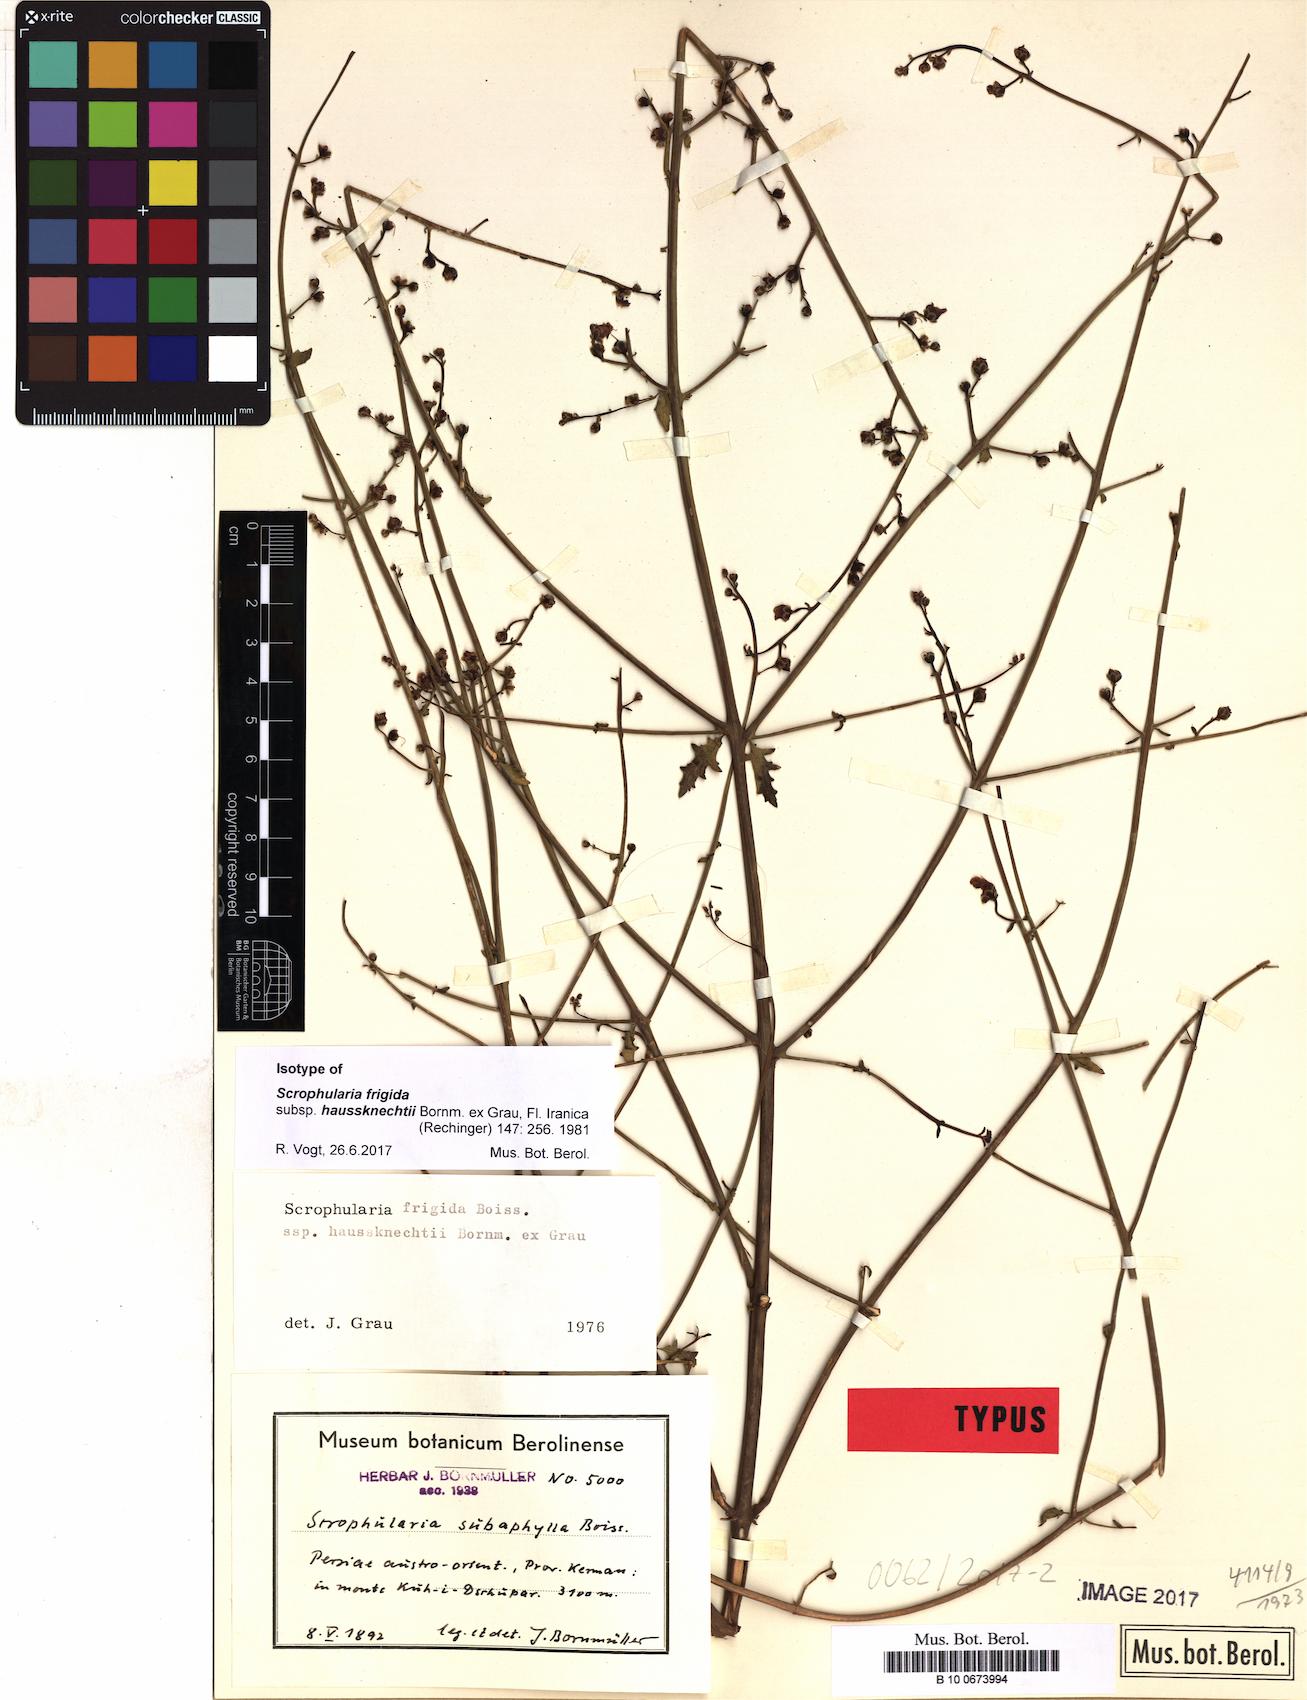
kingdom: Plantae
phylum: Tracheophyta
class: Magnoliopsida
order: Lamiales
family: Scrophulariaceae
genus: Scrophularia
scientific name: Scrophularia frigida
